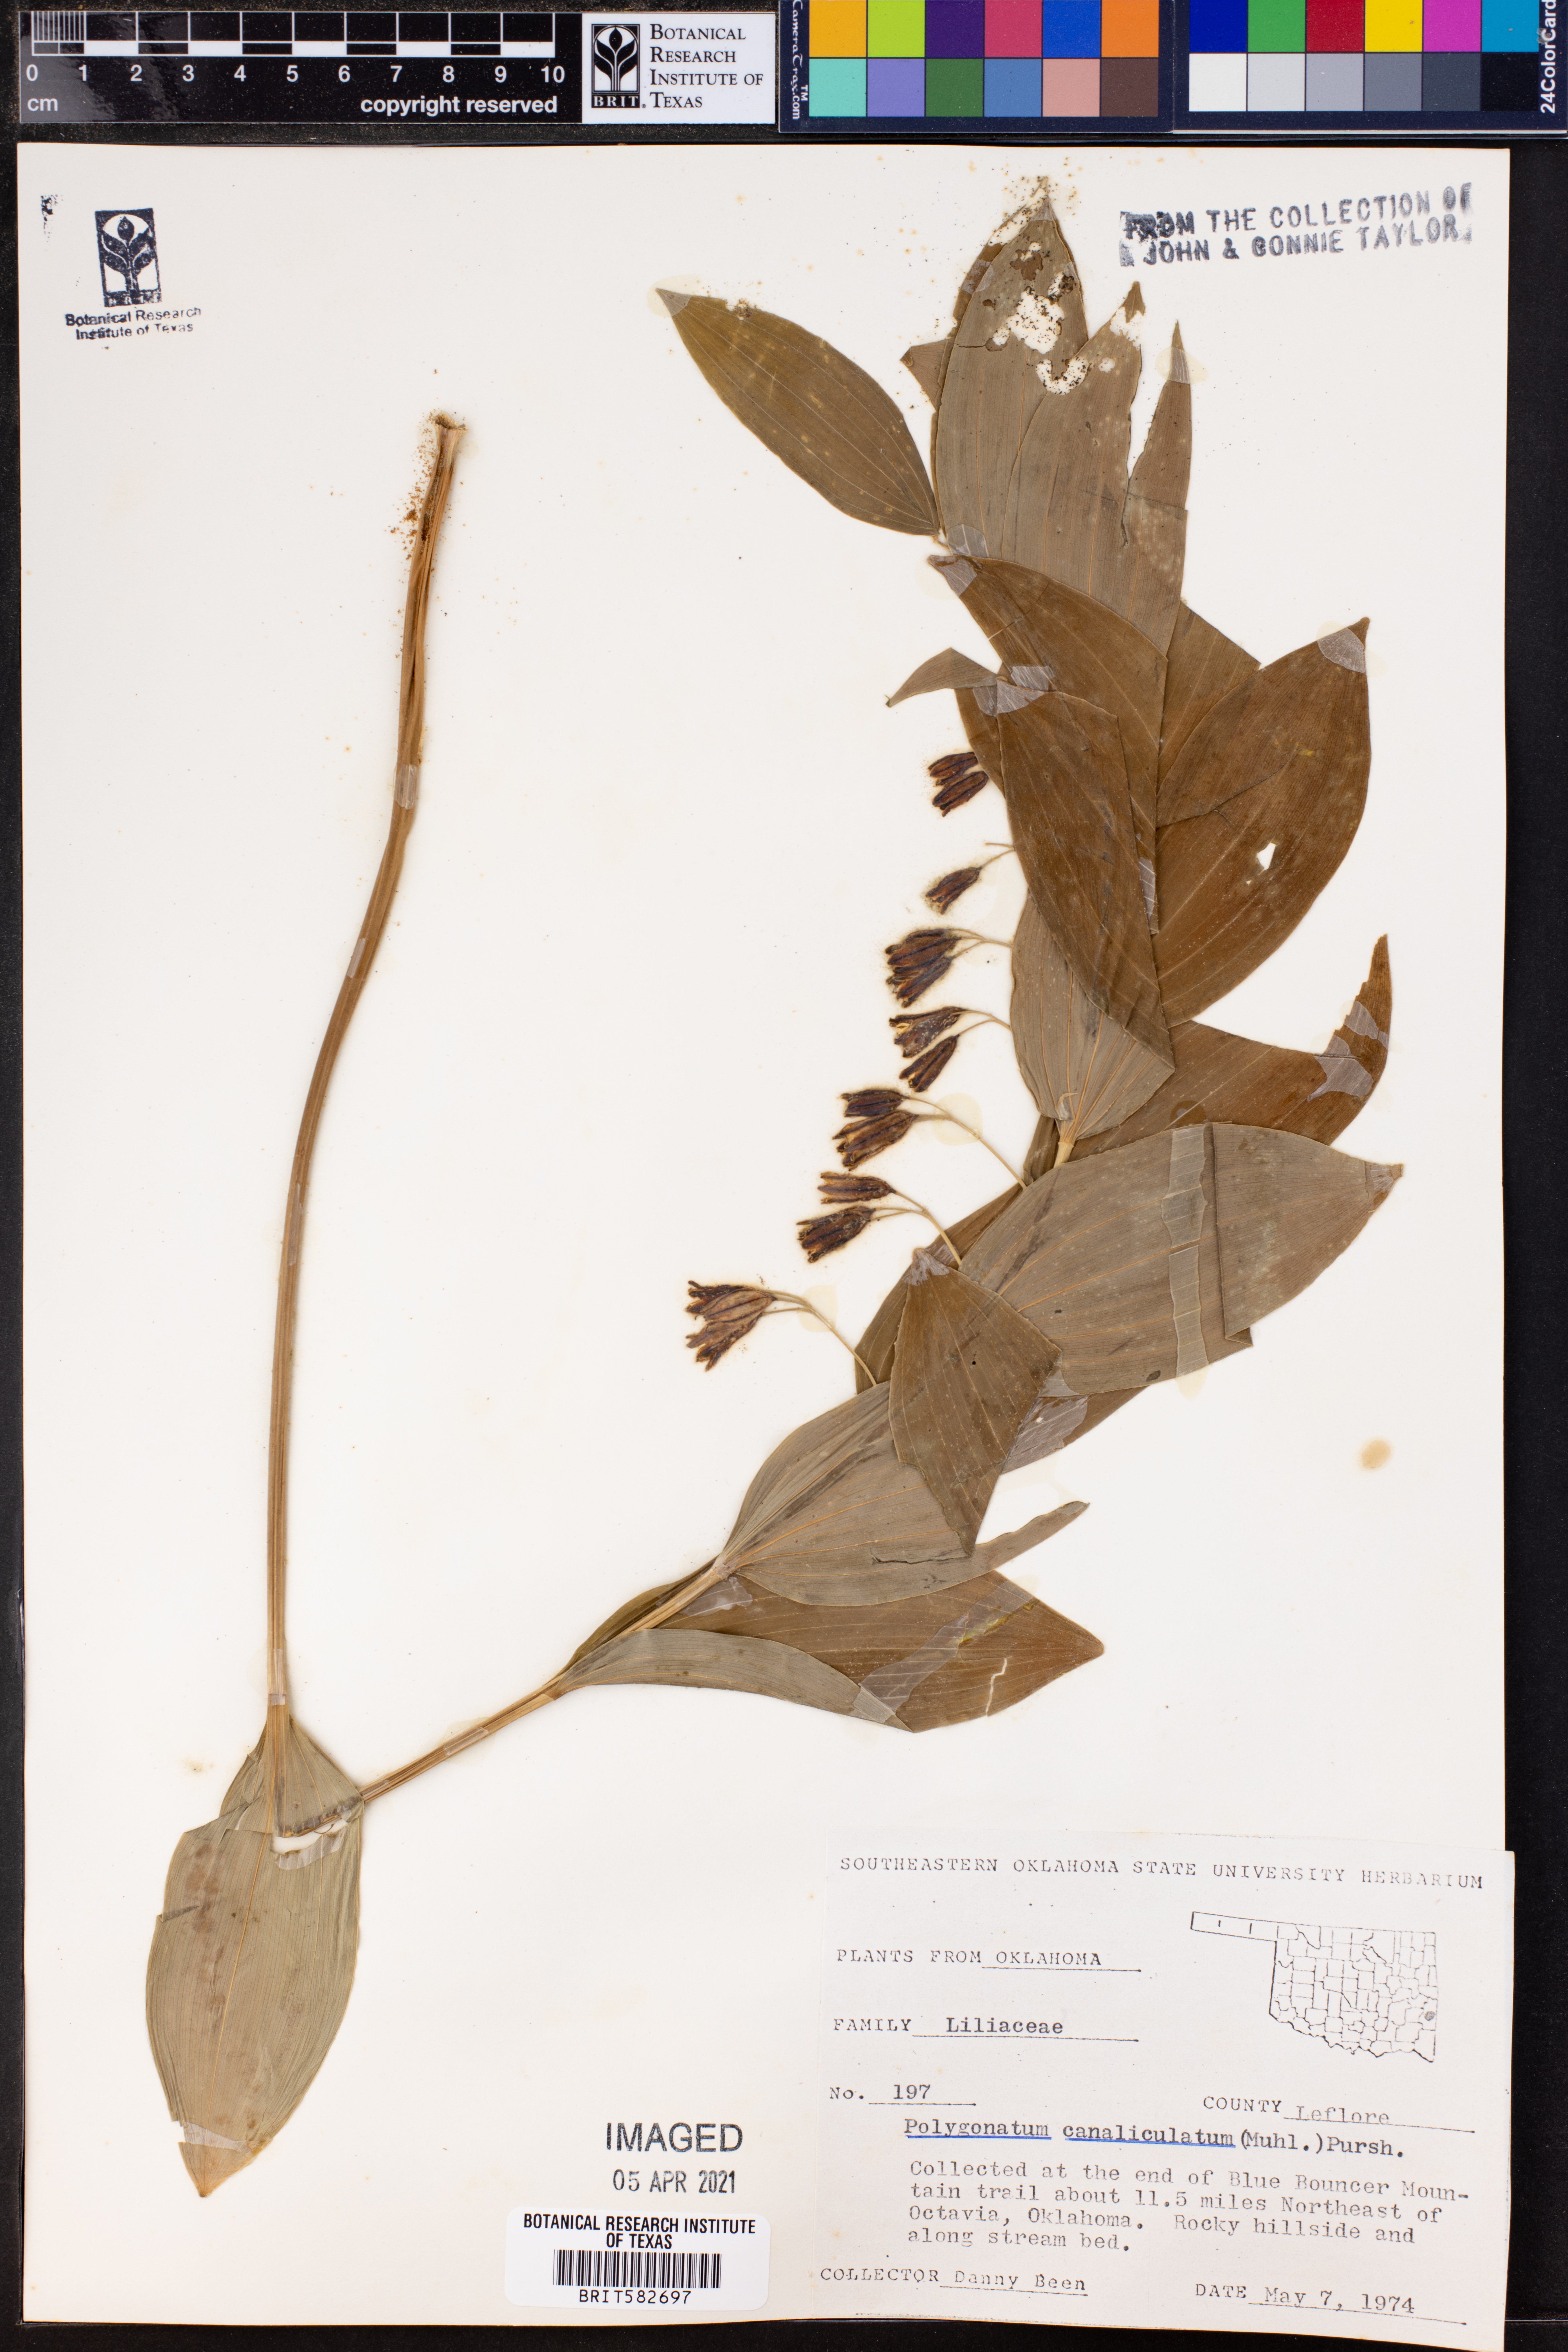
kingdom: Plantae
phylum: Tracheophyta
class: Liliopsida
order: Asparagales
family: Asparagaceae
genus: Polygonatum
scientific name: Polygonatum biflorum
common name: American solomon's-seal
